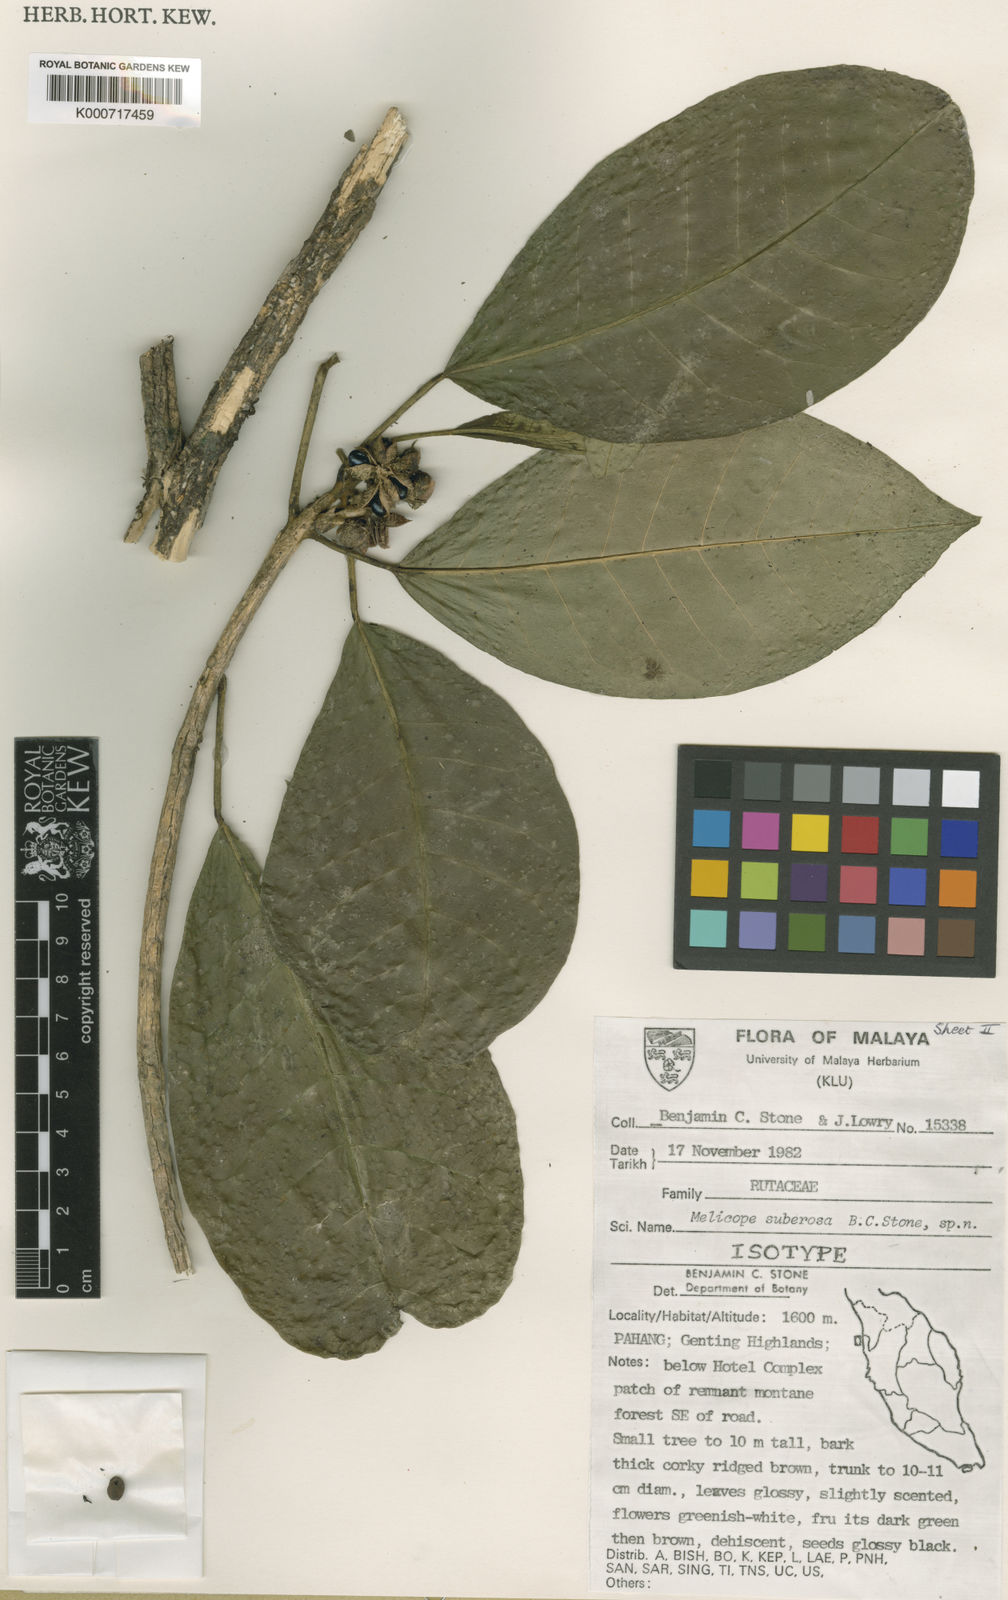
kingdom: Plantae
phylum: Tracheophyta
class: Magnoliopsida
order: Sapindales
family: Rutaceae
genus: Melicope
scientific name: Melicope suberosa
